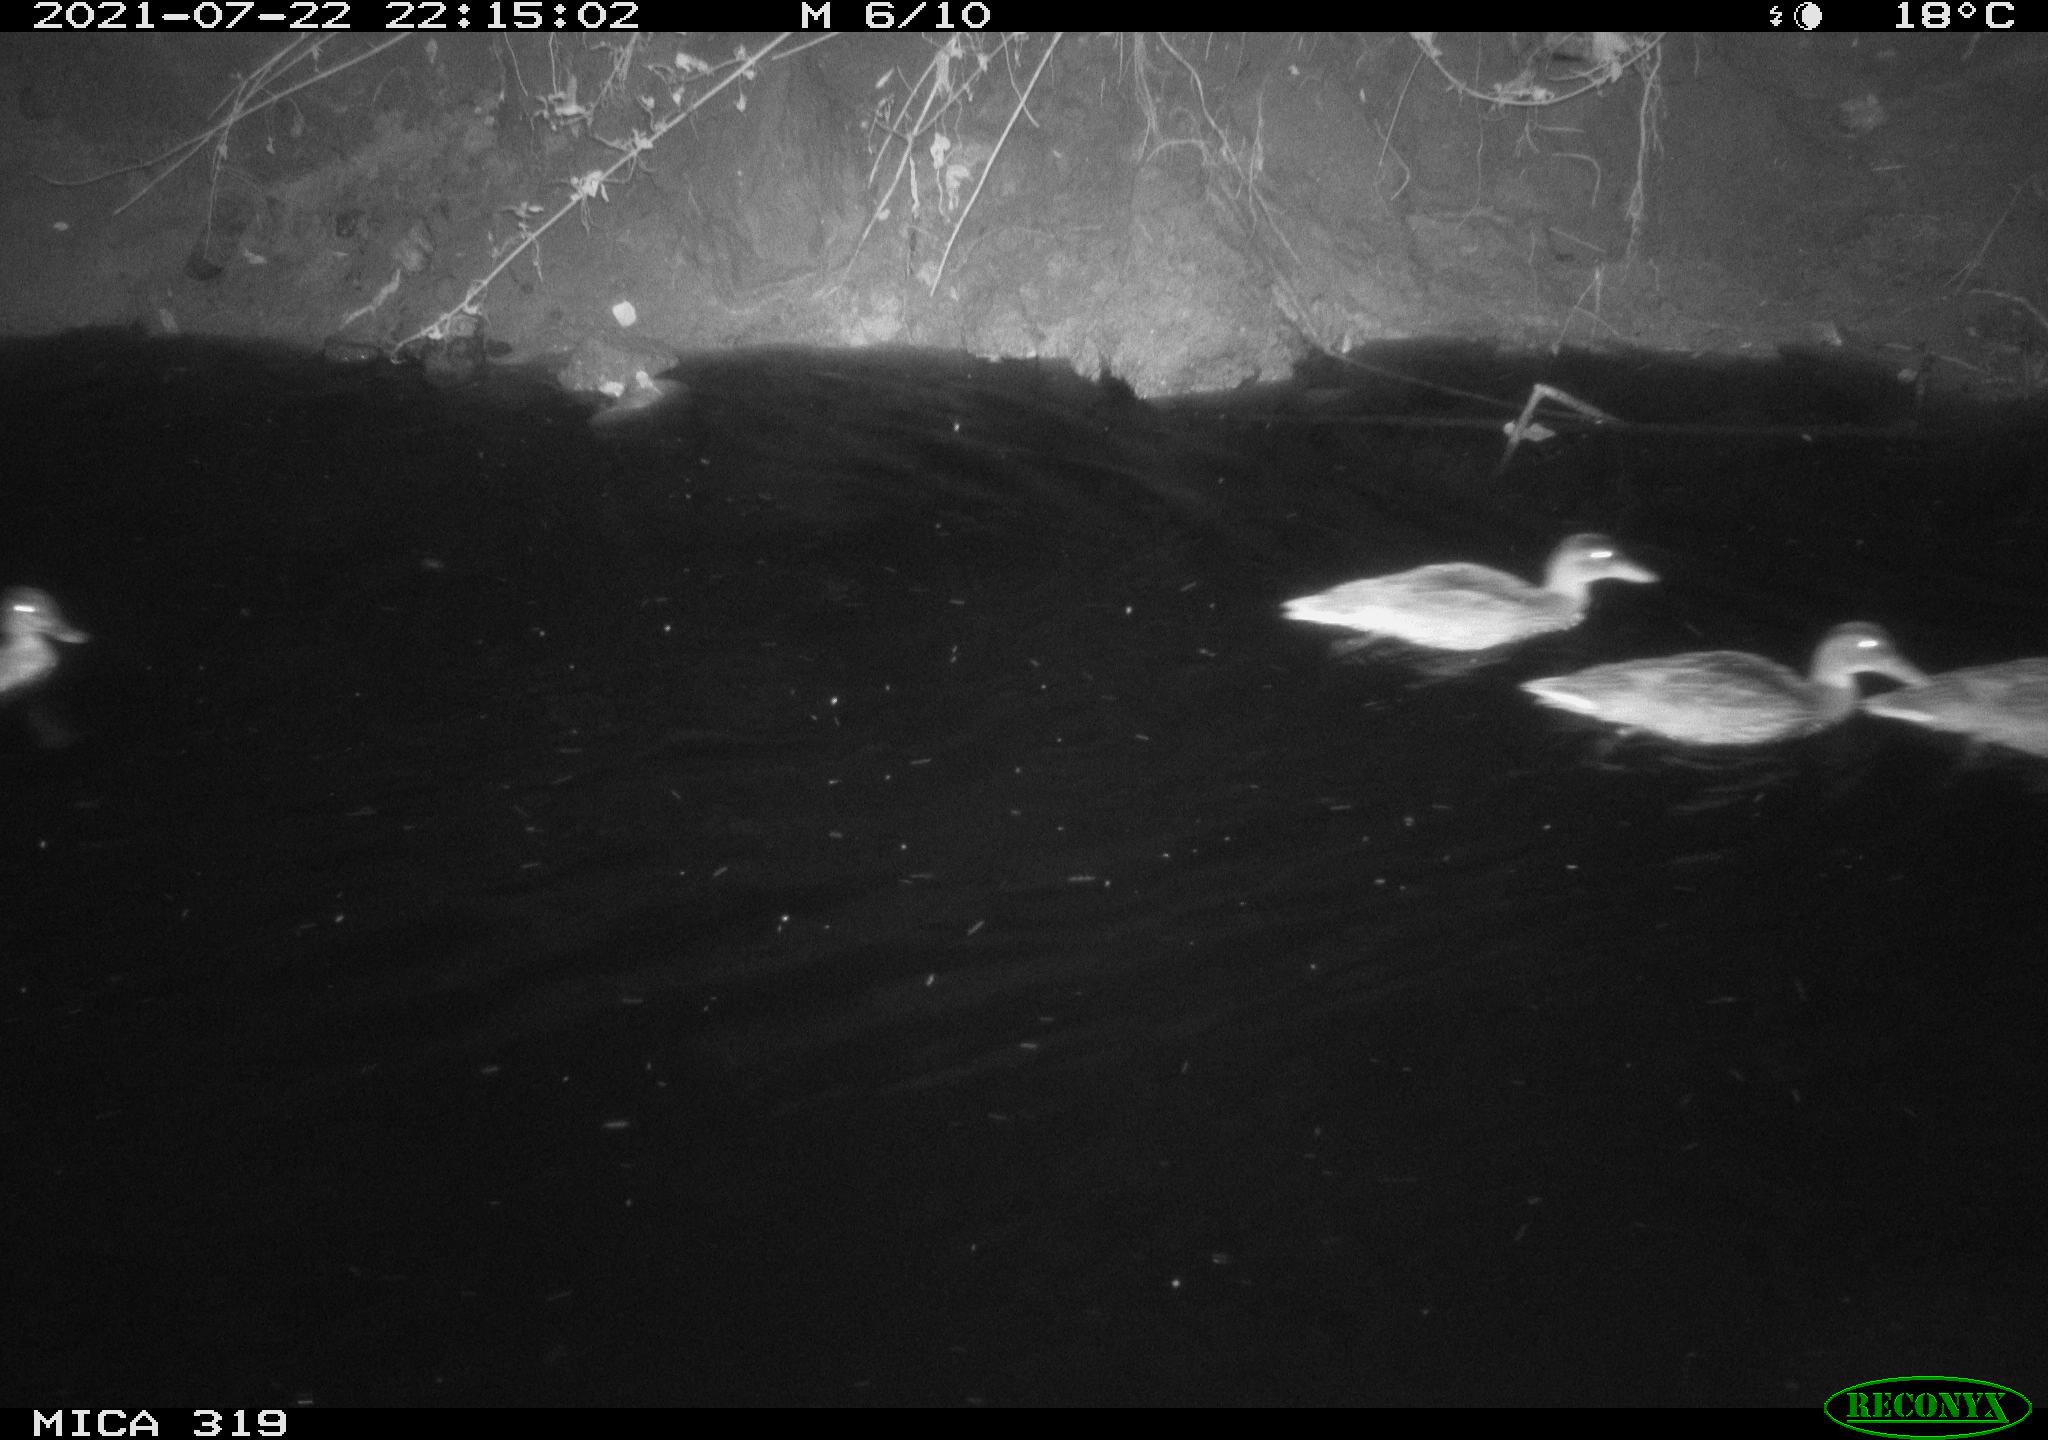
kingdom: Animalia
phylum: Chordata
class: Aves
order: Anseriformes
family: Anatidae
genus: Anas
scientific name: Anas platyrhynchos
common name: Mallard
